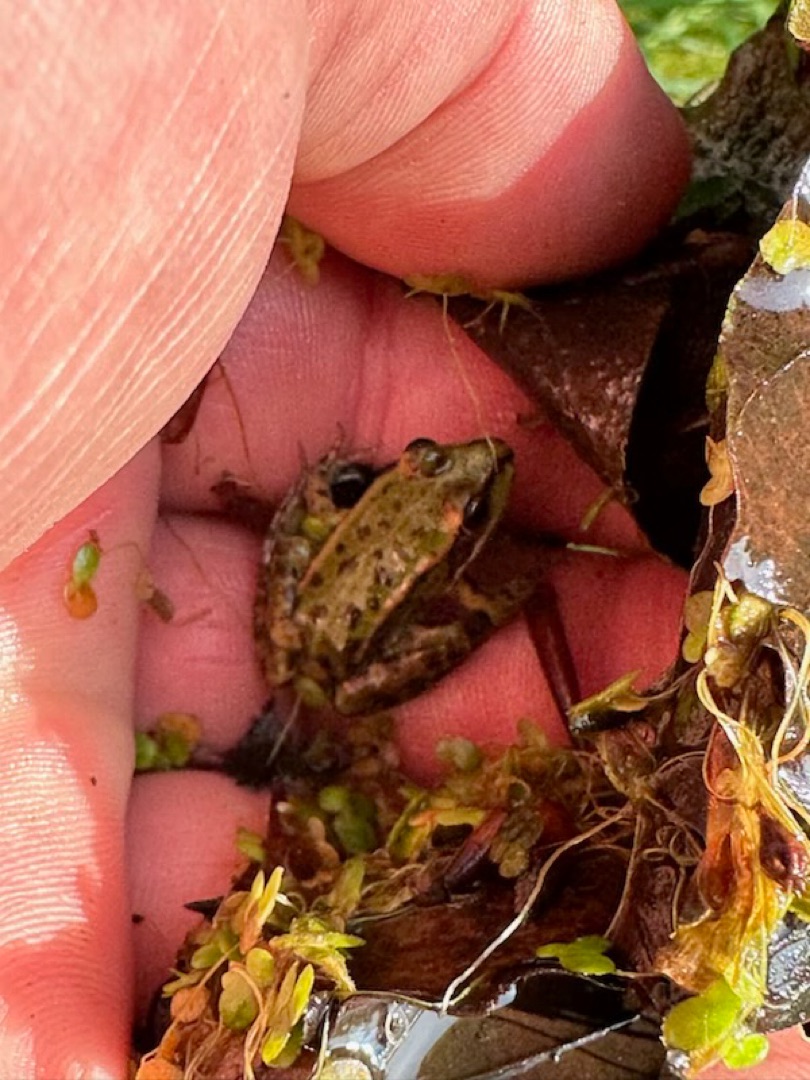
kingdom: Animalia
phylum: Chordata
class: Amphibia
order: Anura
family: Ranidae
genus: Pelophylax
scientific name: Pelophylax lessonae
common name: Grøn frø
